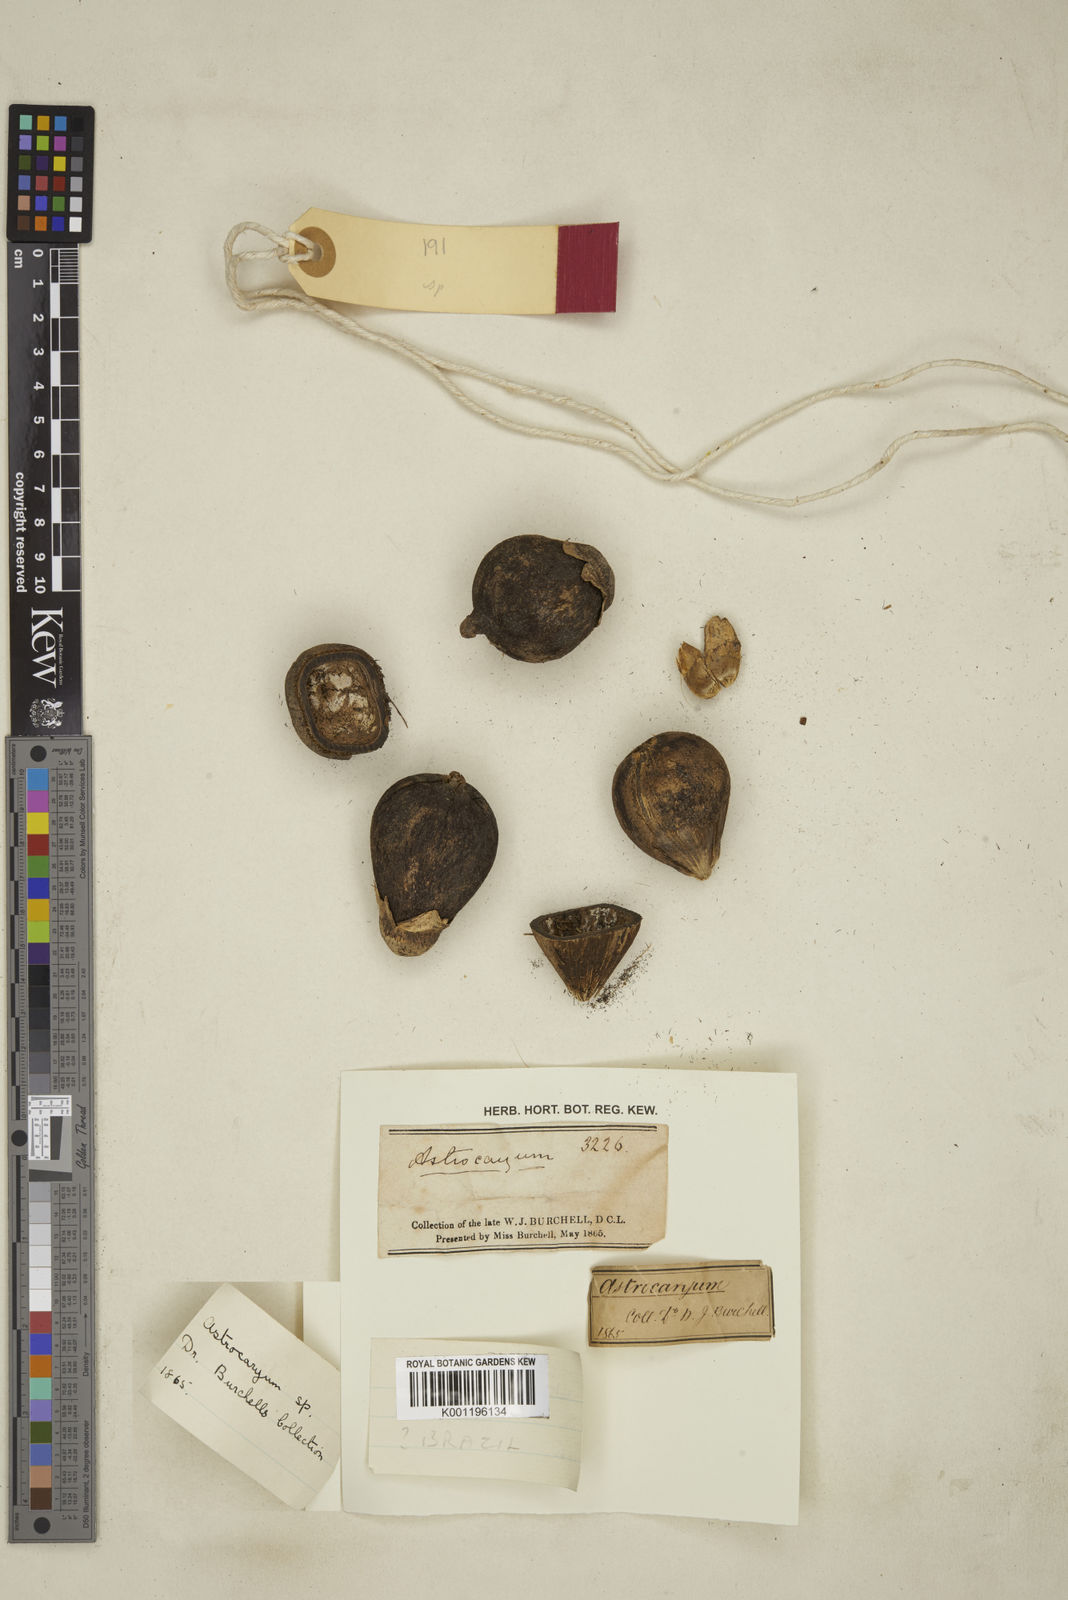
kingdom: Plantae
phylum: Tracheophyta
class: Liliopsida
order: Arecales
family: Arecaceae
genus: Astrocaryum
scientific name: Astrocaryum
